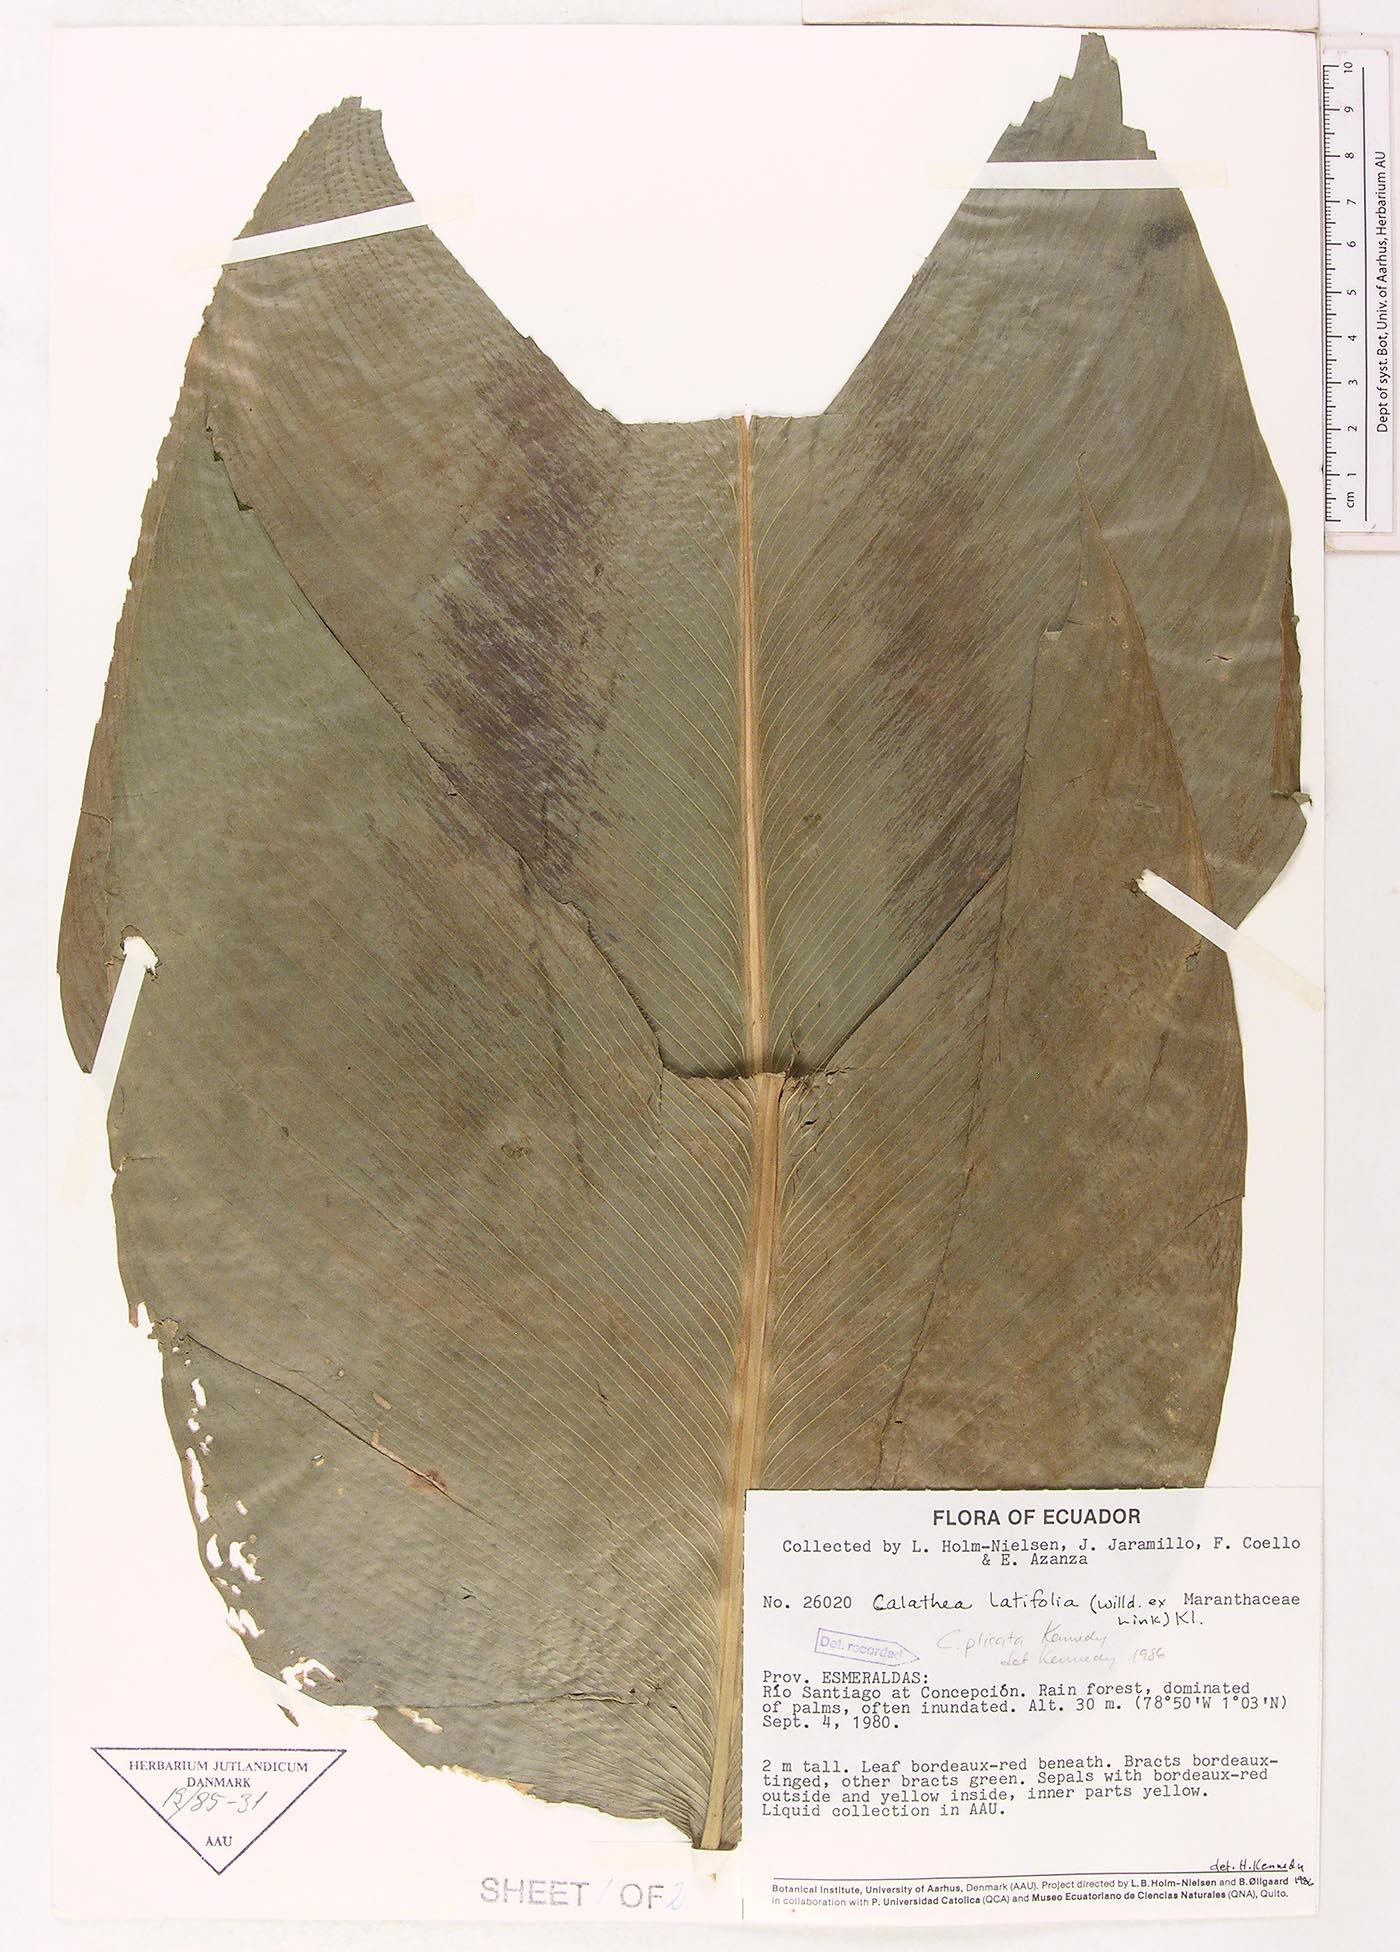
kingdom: Plantae
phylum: Tracheophyta
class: Liliopsida
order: Zingiberales
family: Marantaceae
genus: Goeppertia
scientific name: Goeppertia latifolia
